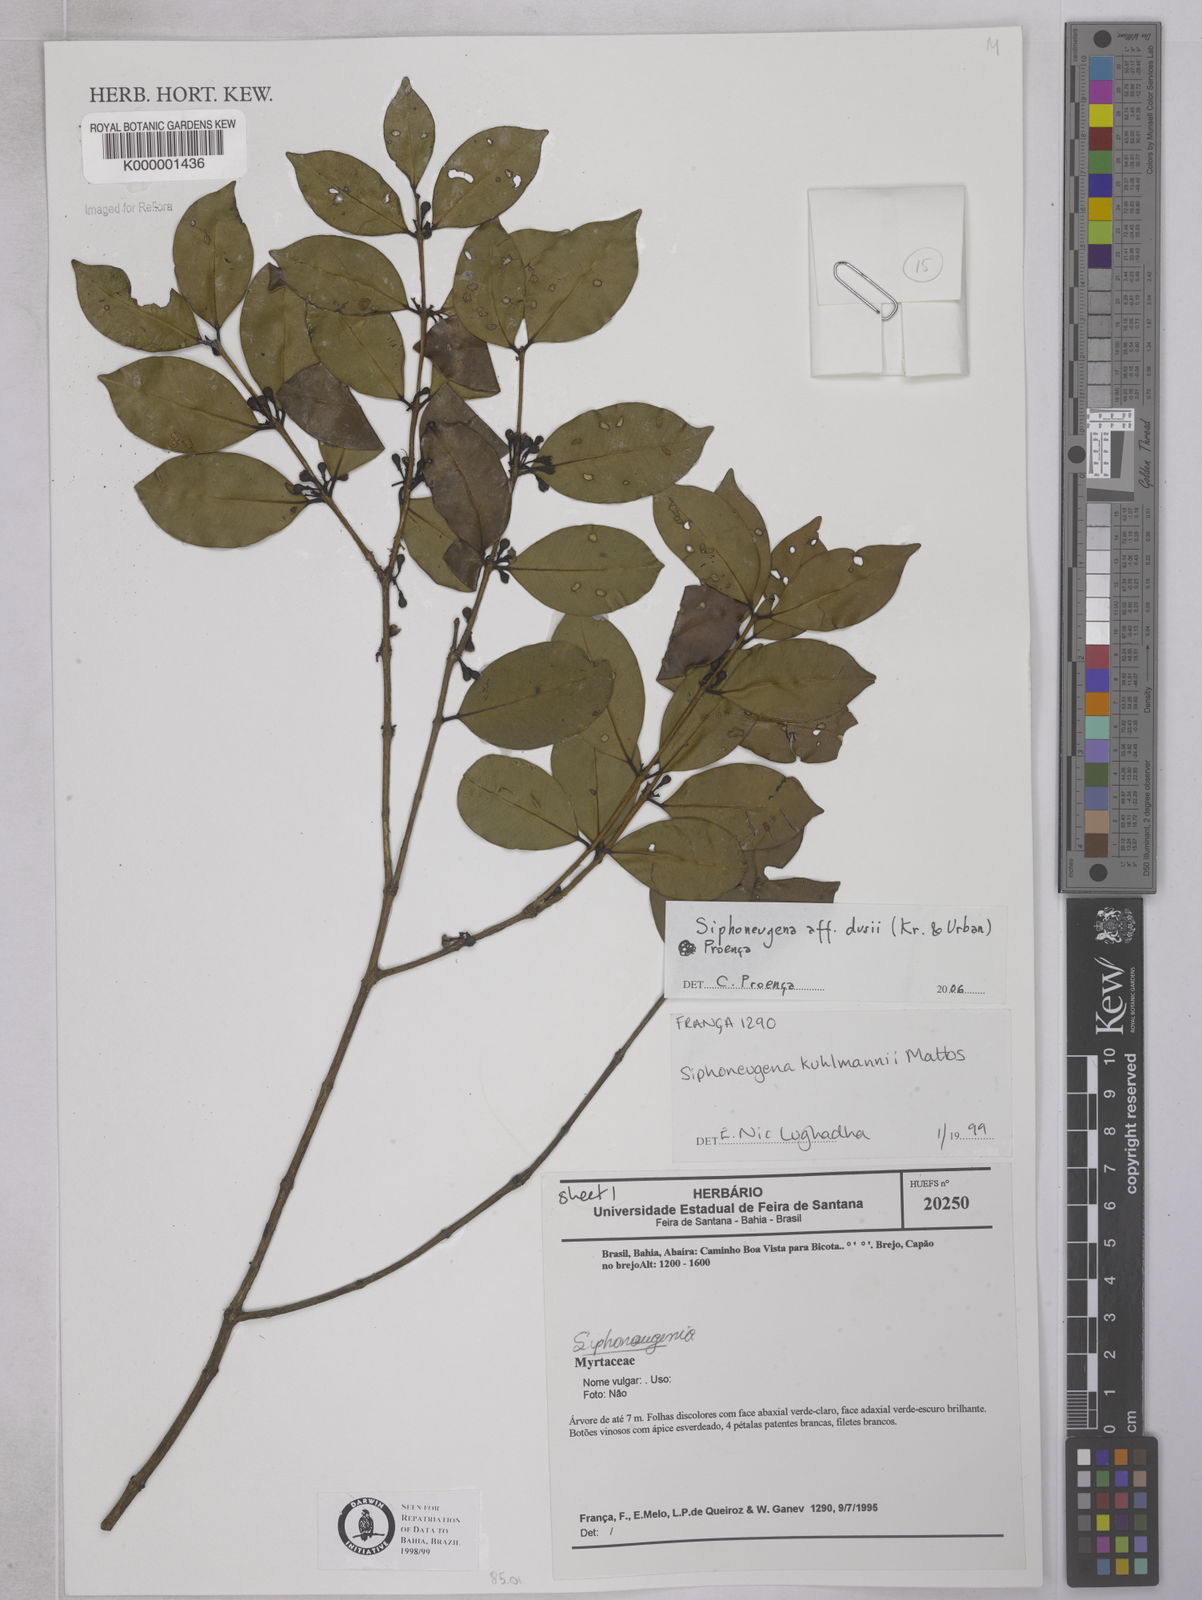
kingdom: Plantae
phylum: Tracheophyta
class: Magnoliopsida
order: Myrtales
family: Myrtaceae
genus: Siphoneugena
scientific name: Siphoneugena kuhlmannii
